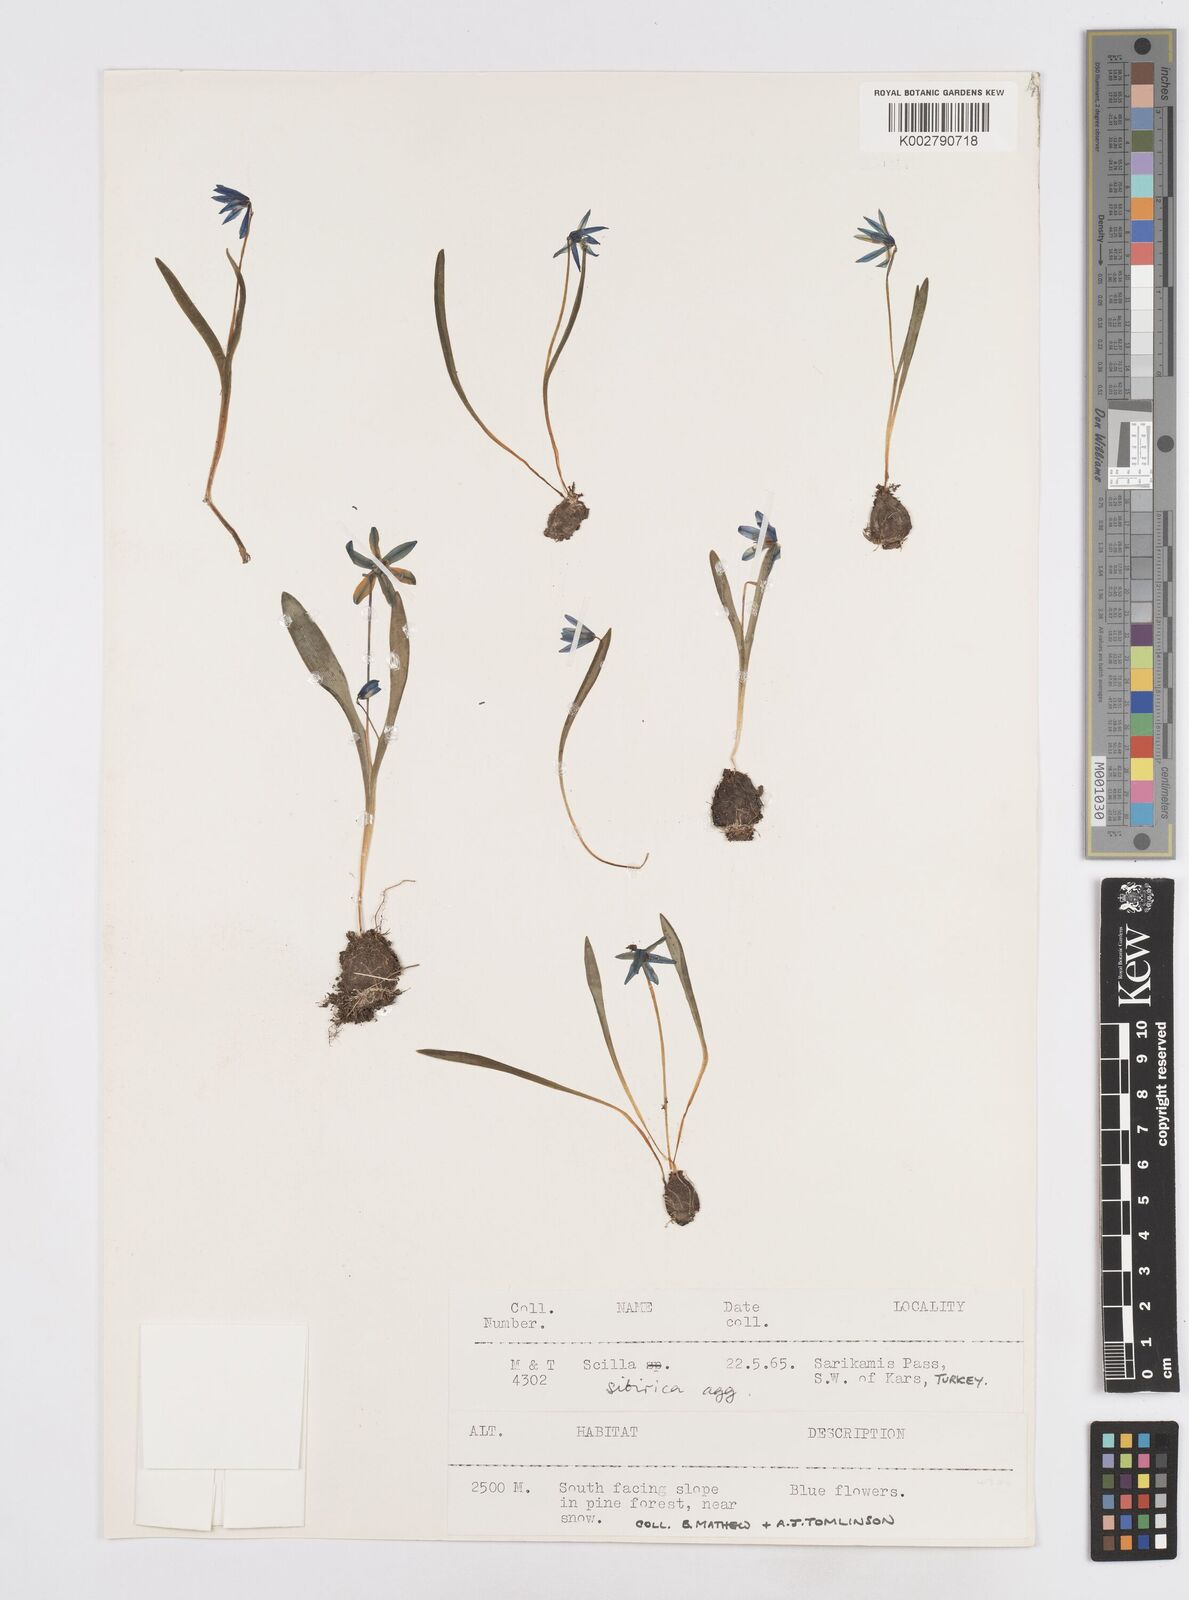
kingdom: Plantae
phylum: Tracheophyta
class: Liliopsida
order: Asparagales
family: Asparagaceae
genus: Scilla
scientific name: Scilla siberica
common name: Siberian squill
